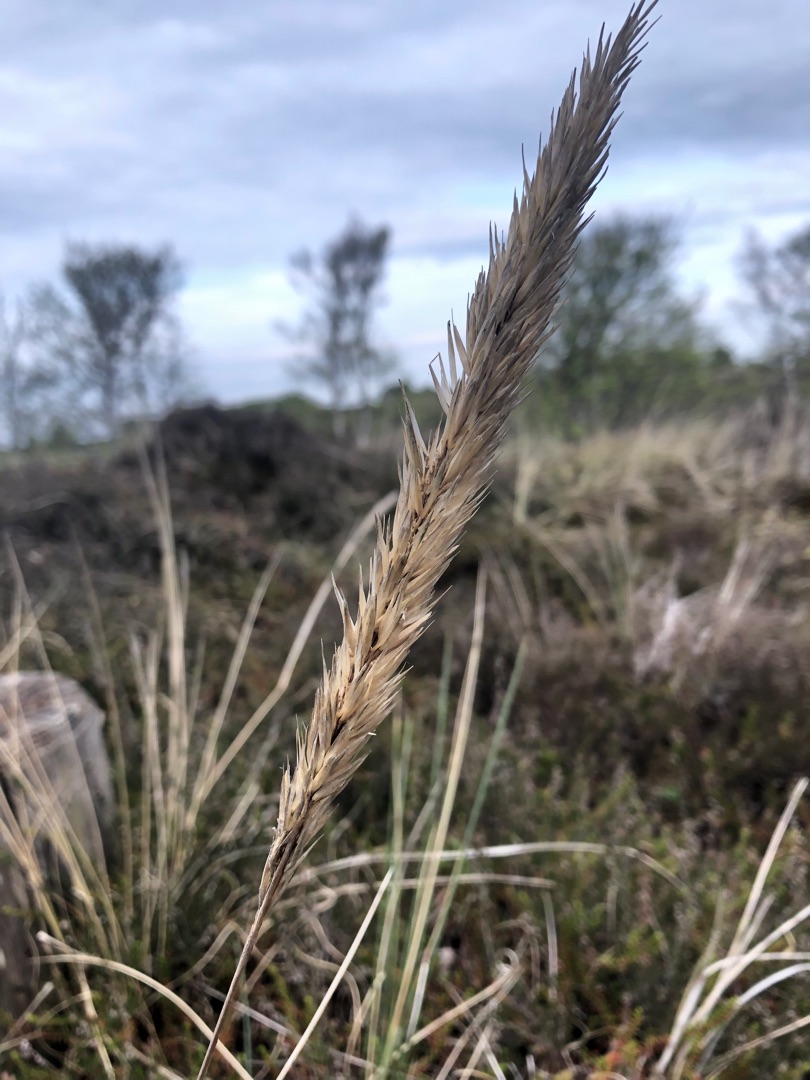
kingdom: Plantae
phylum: Tracheophyta
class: Liliopsida
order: Poales
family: Poaceae
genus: Calamagrostis
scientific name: Calamagrostis arenaria
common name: Sand-hjælme
